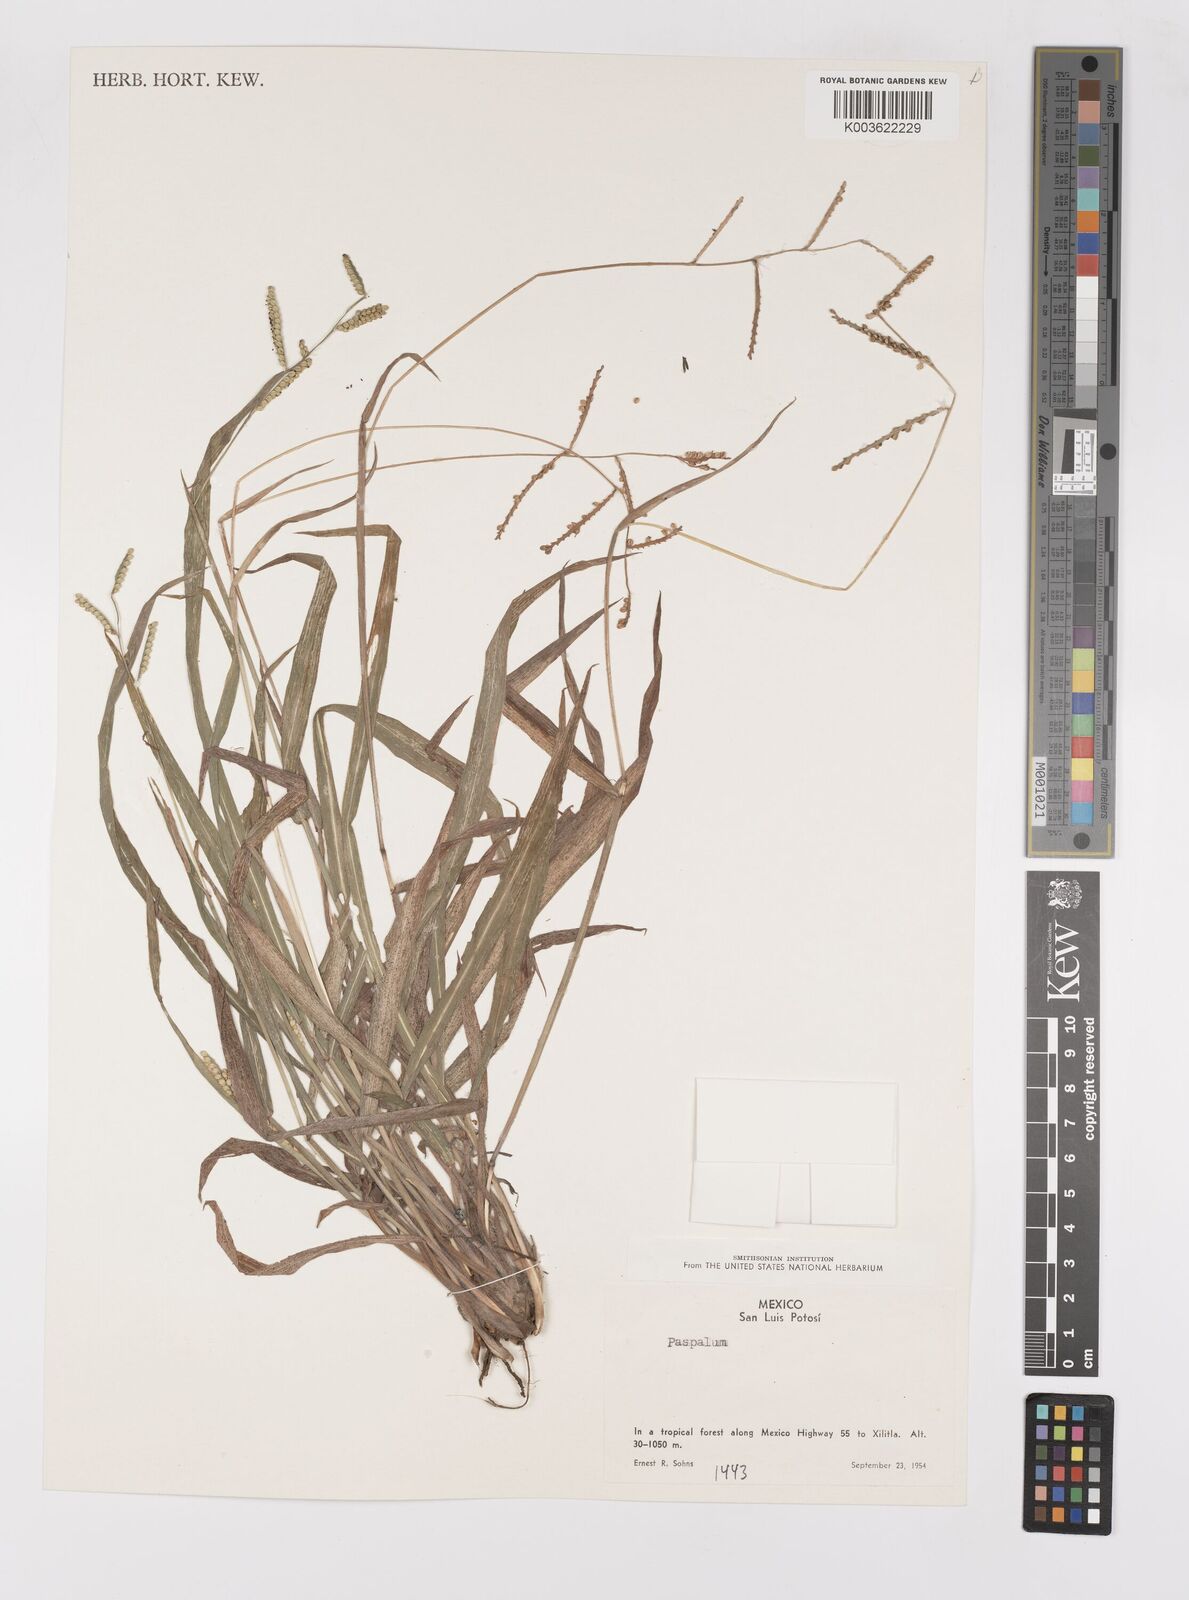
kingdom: Plantae
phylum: Tracheophyta
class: Liliopsida
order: Poales
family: Poaceae
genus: Paspalum
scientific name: Paspalum
